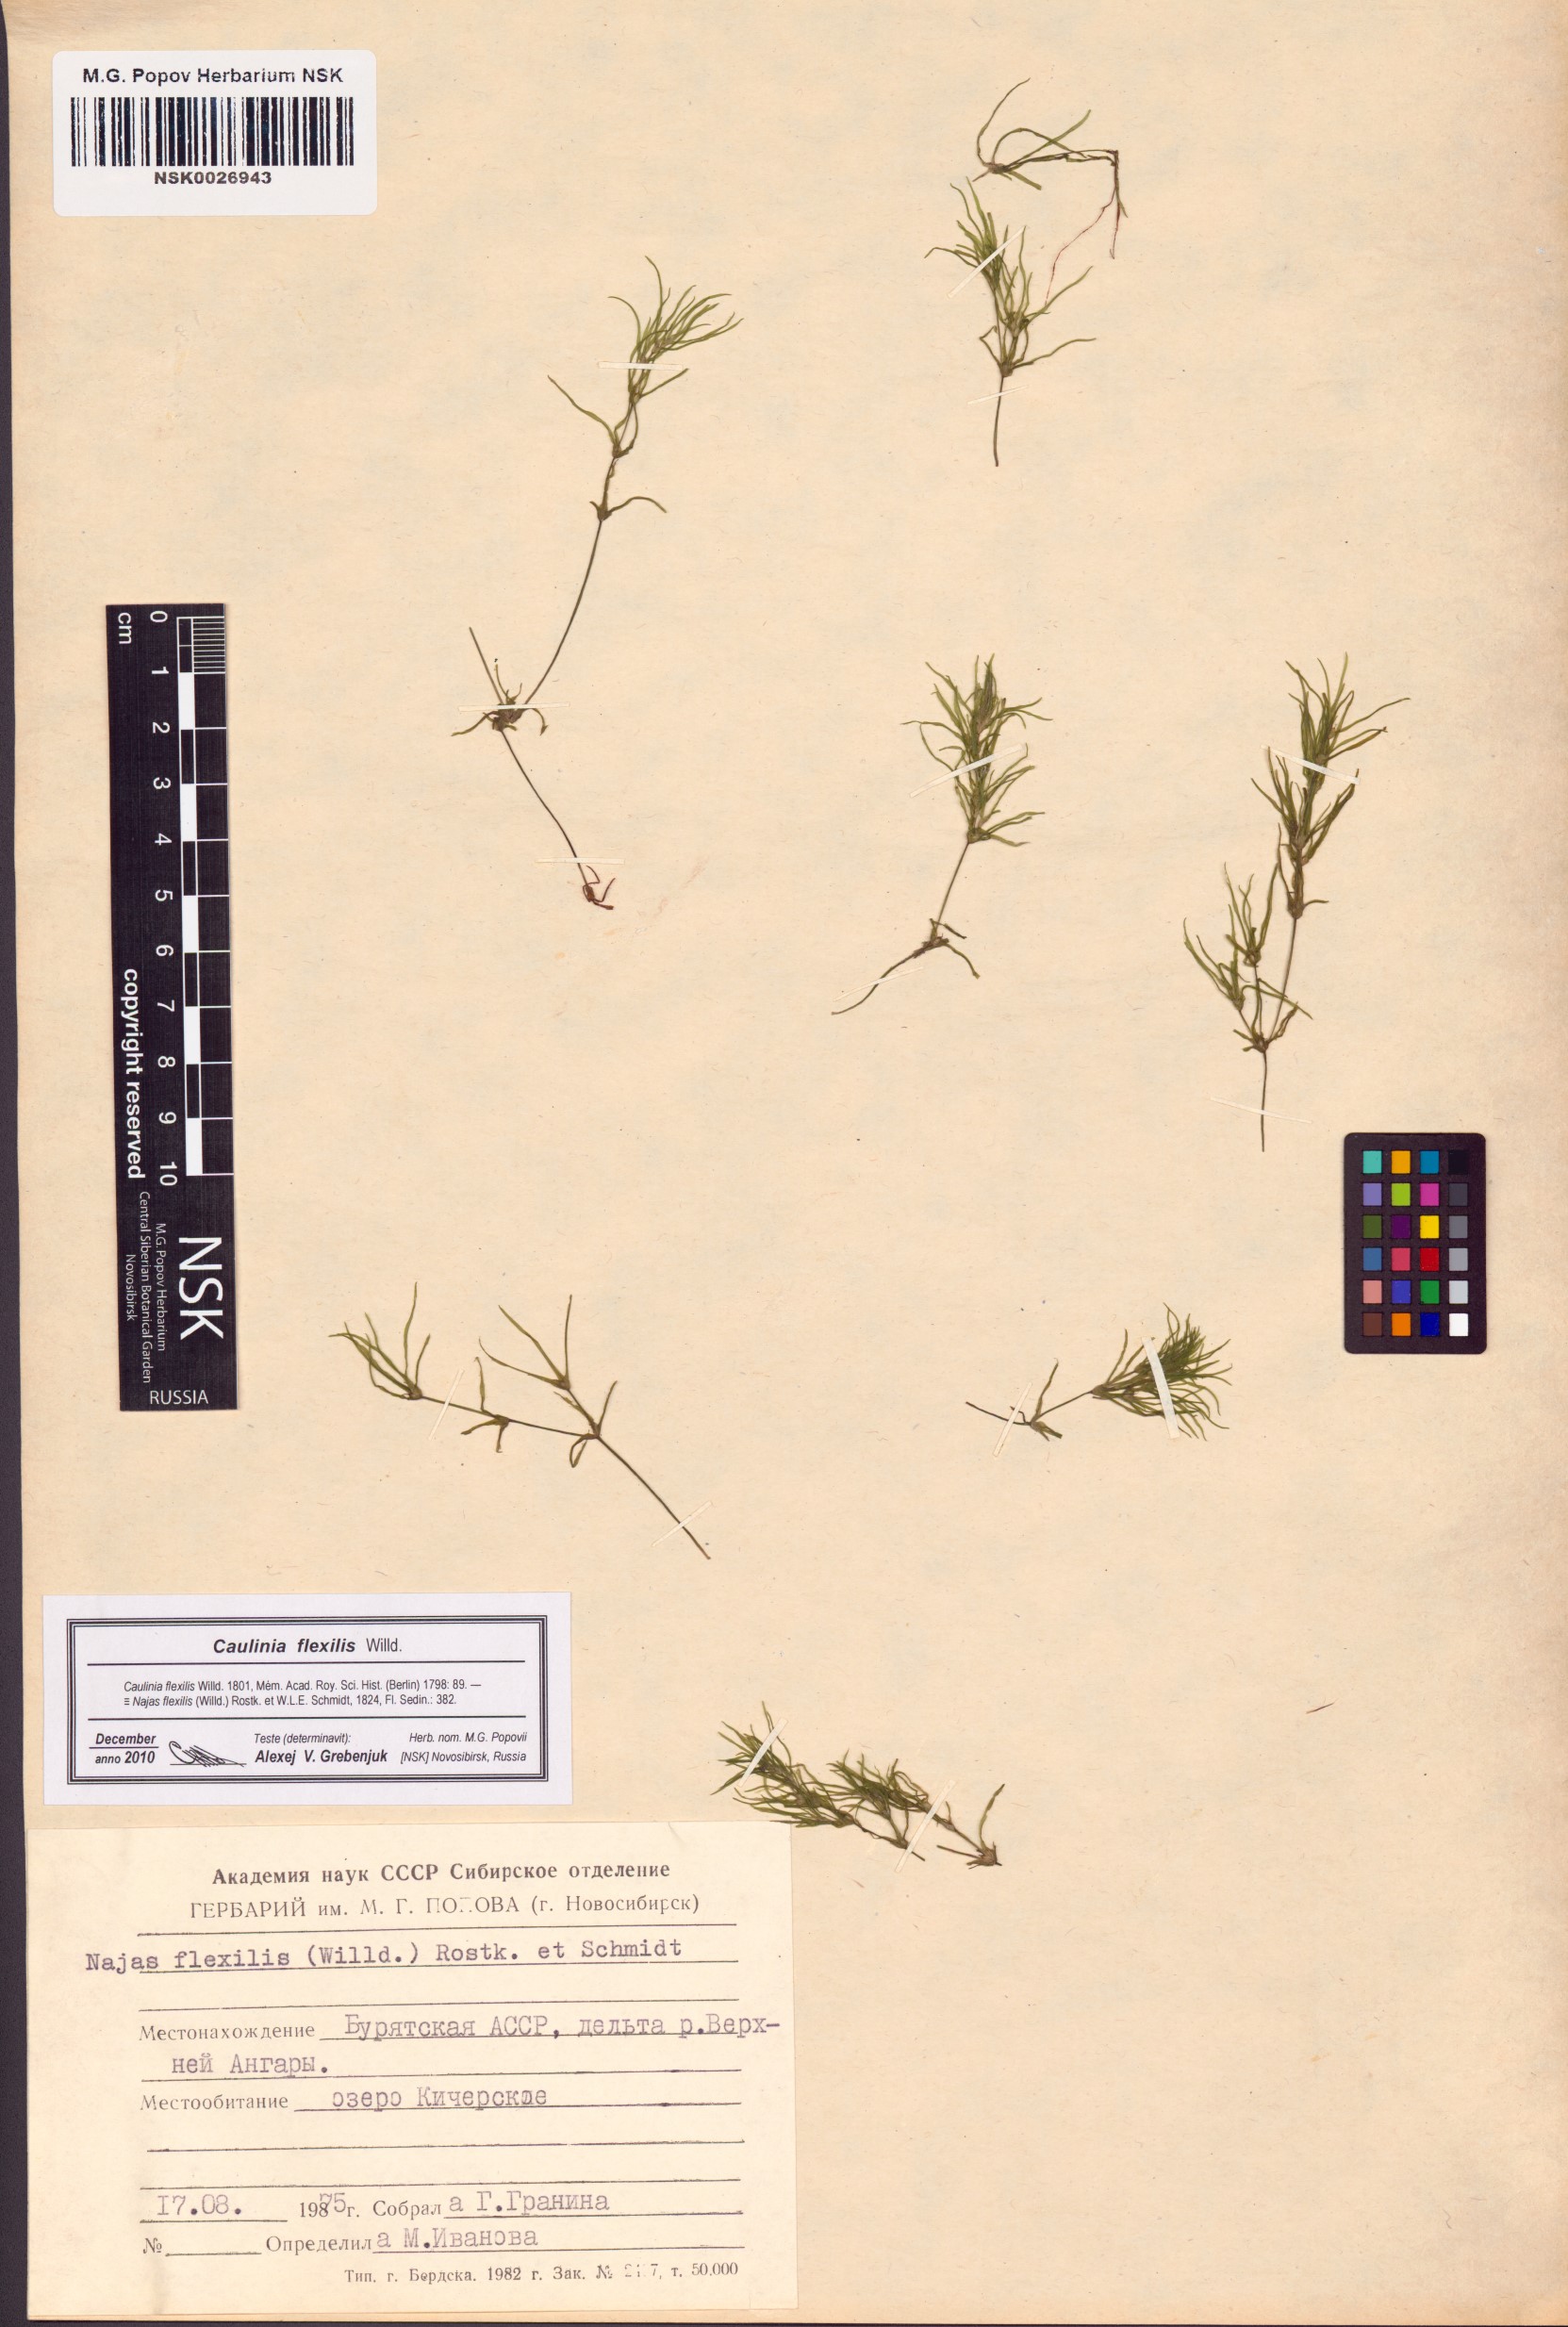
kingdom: Plantae
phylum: Tracheophyta
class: Liliopsida
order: Alismatales
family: Hydrocharitaceae
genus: Najas
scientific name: Najas flexilis
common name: Slender naiad
